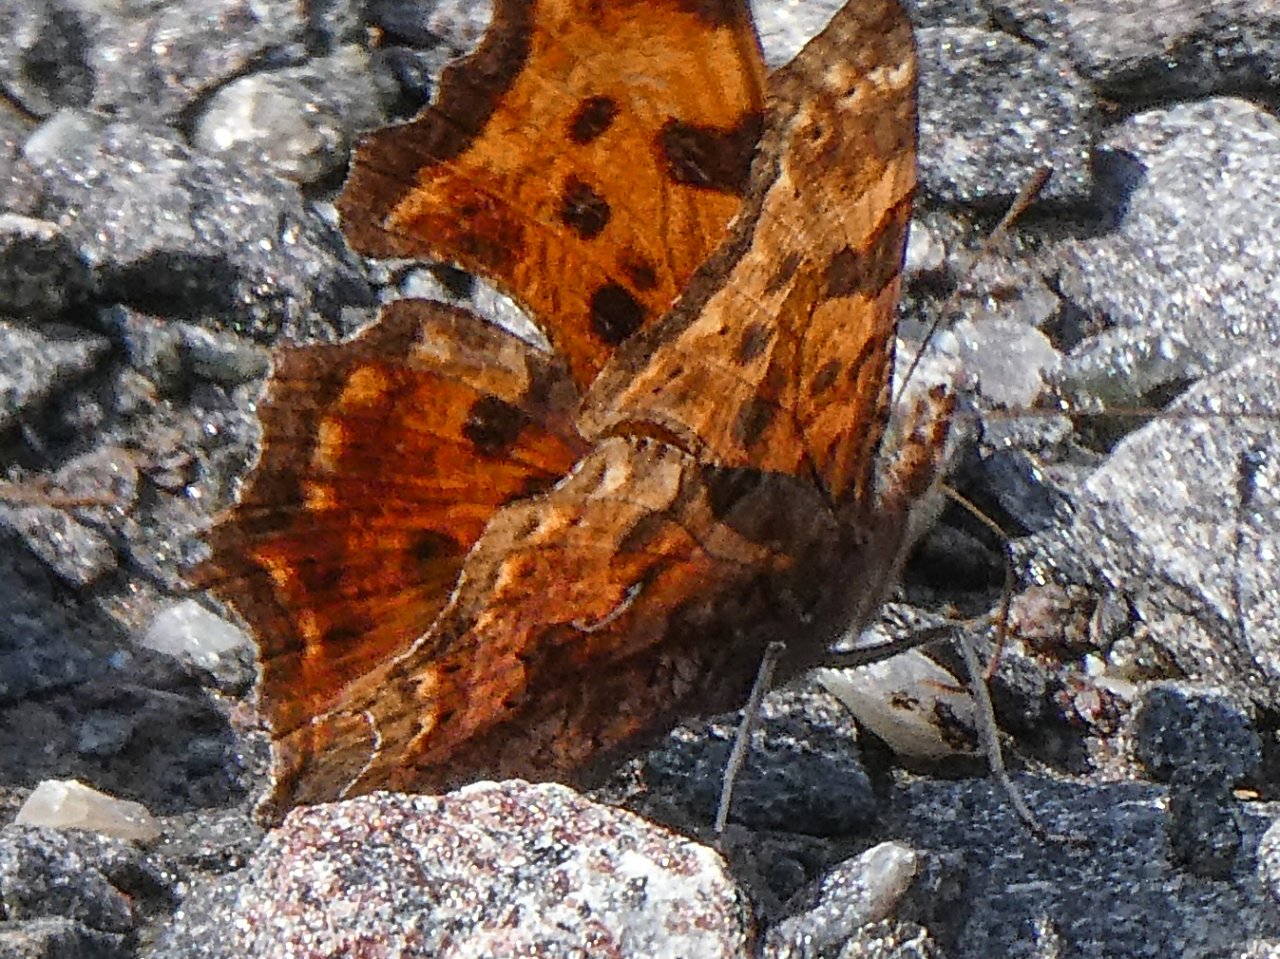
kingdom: Animalia
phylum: Arthropoda
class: Insecta
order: Lepidoptera
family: Nymphalidae
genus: Polygonia
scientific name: Polygonia comma
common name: Eastern Comma
